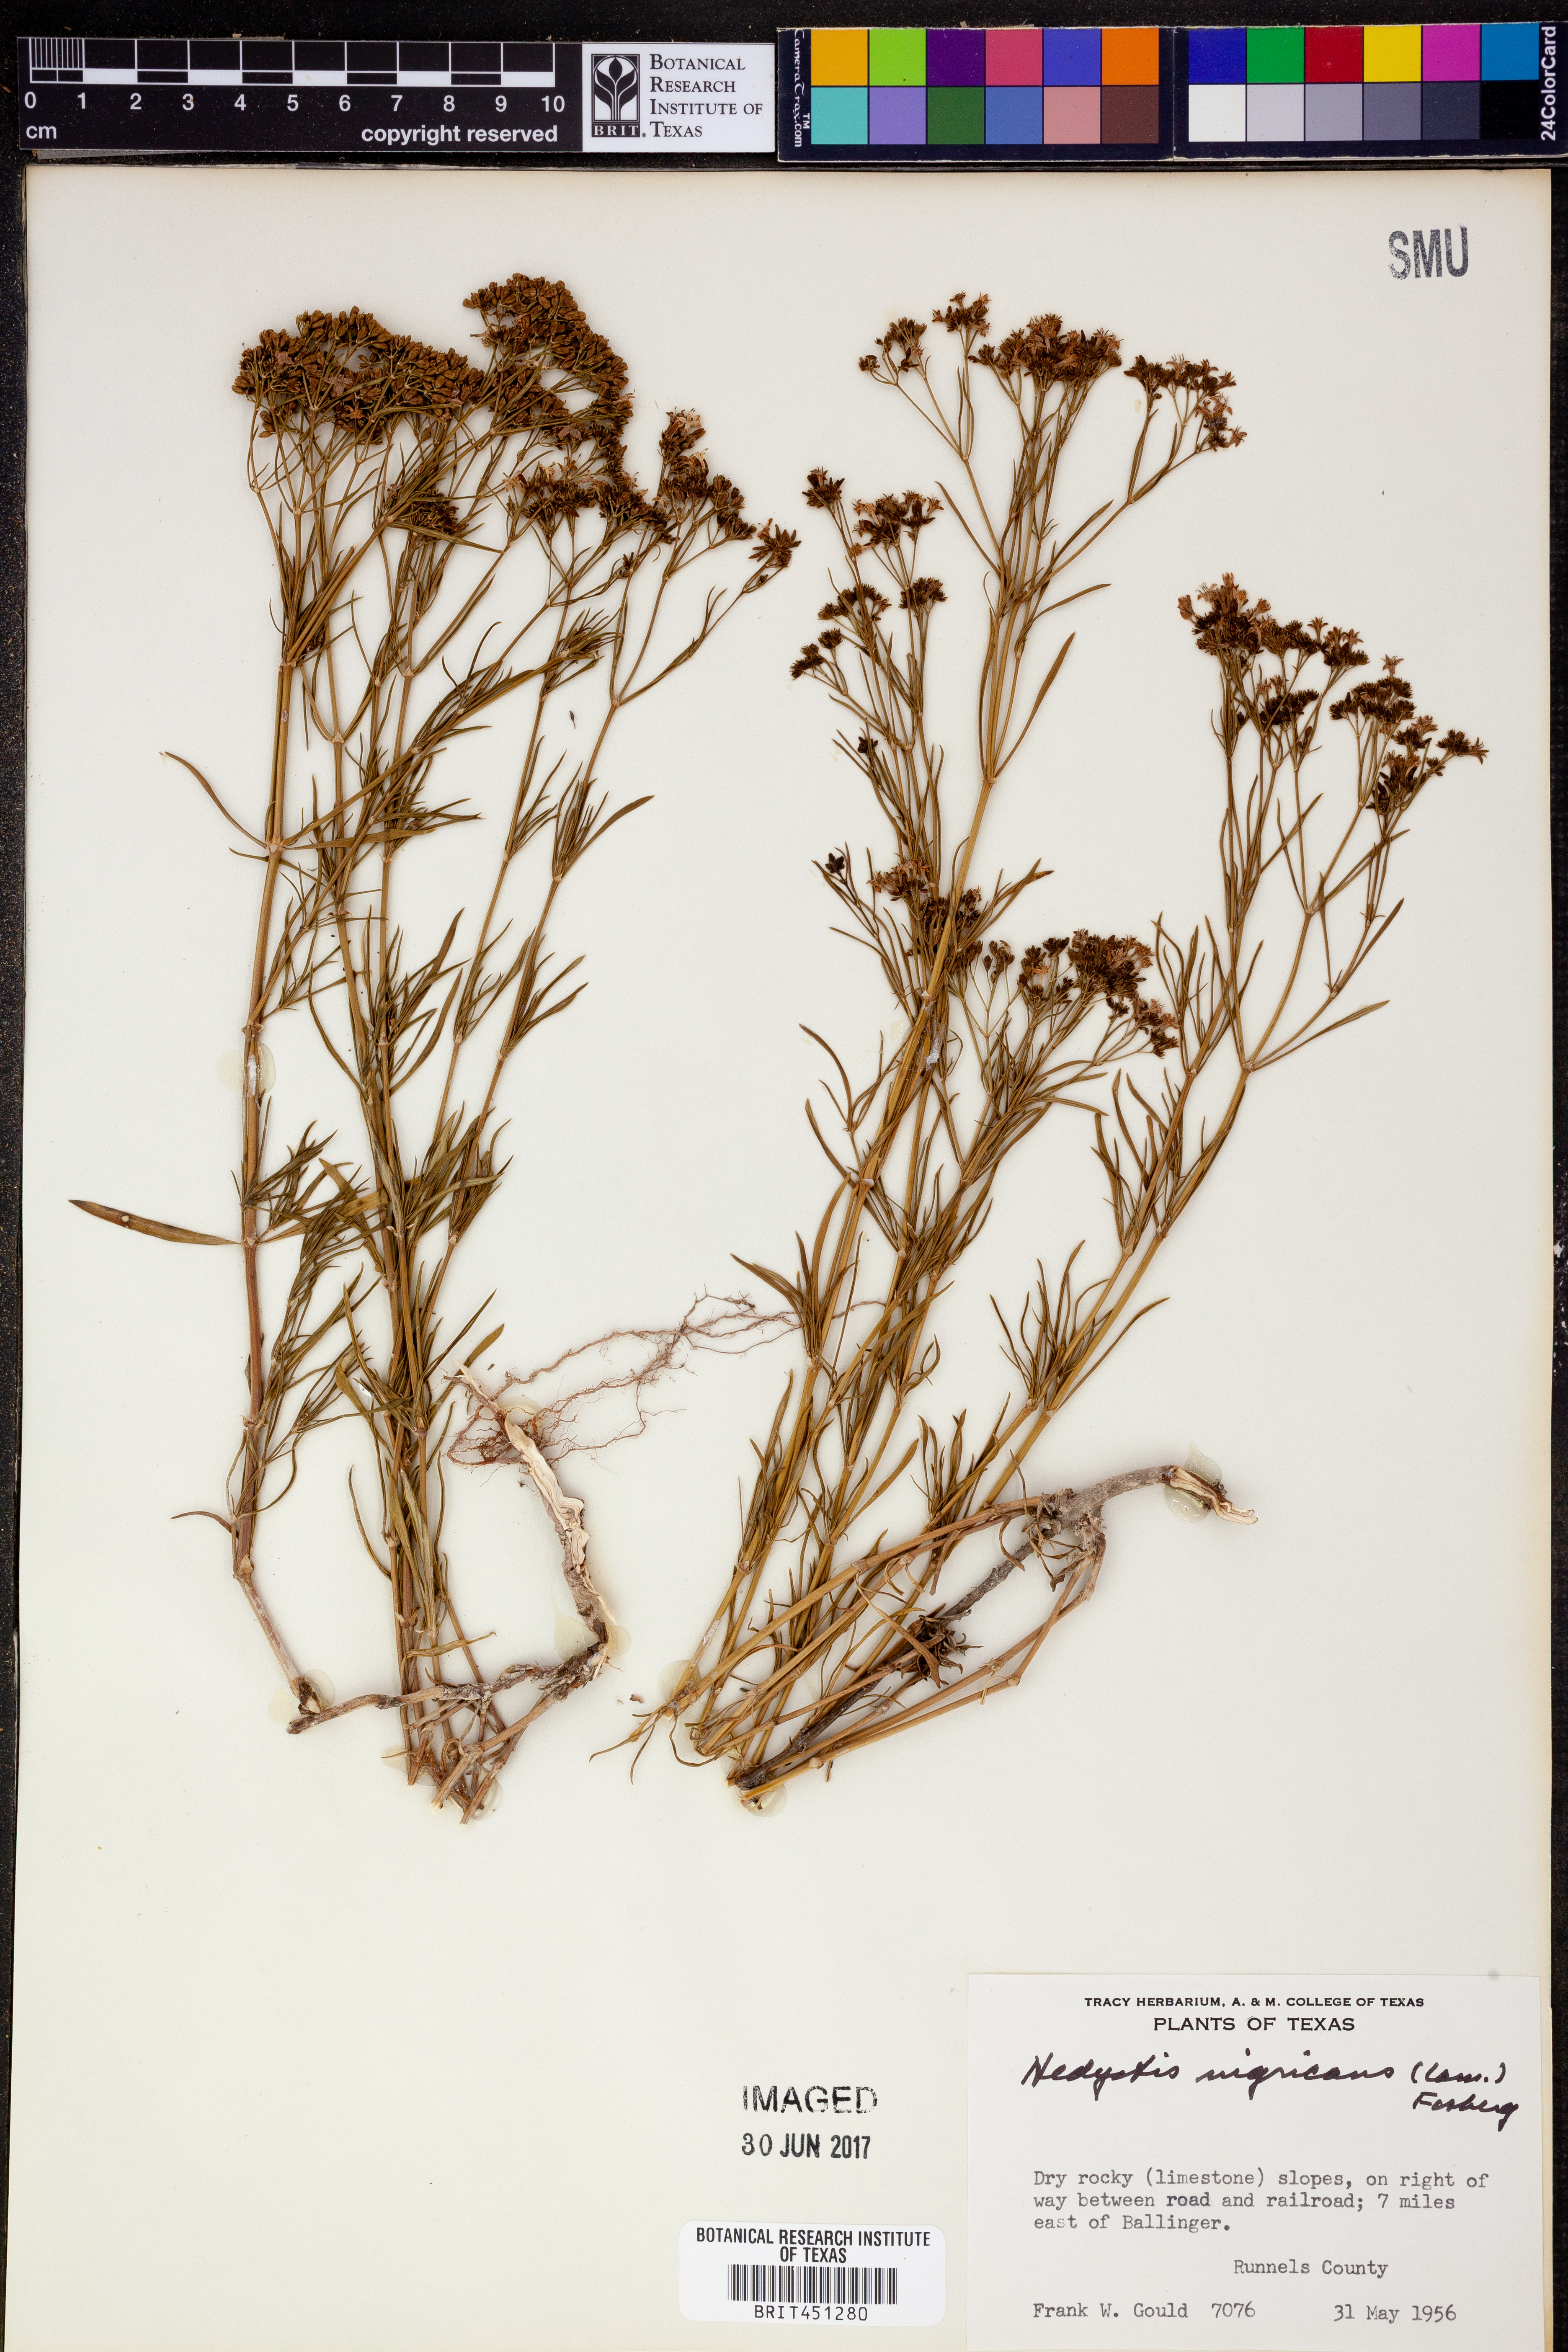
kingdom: Plantae
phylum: Tracheophyta
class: Magnoliopsida
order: Gentianales
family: Rubiaceae
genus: Stenaria
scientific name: Stenaria nigricans
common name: Diamondflowers
